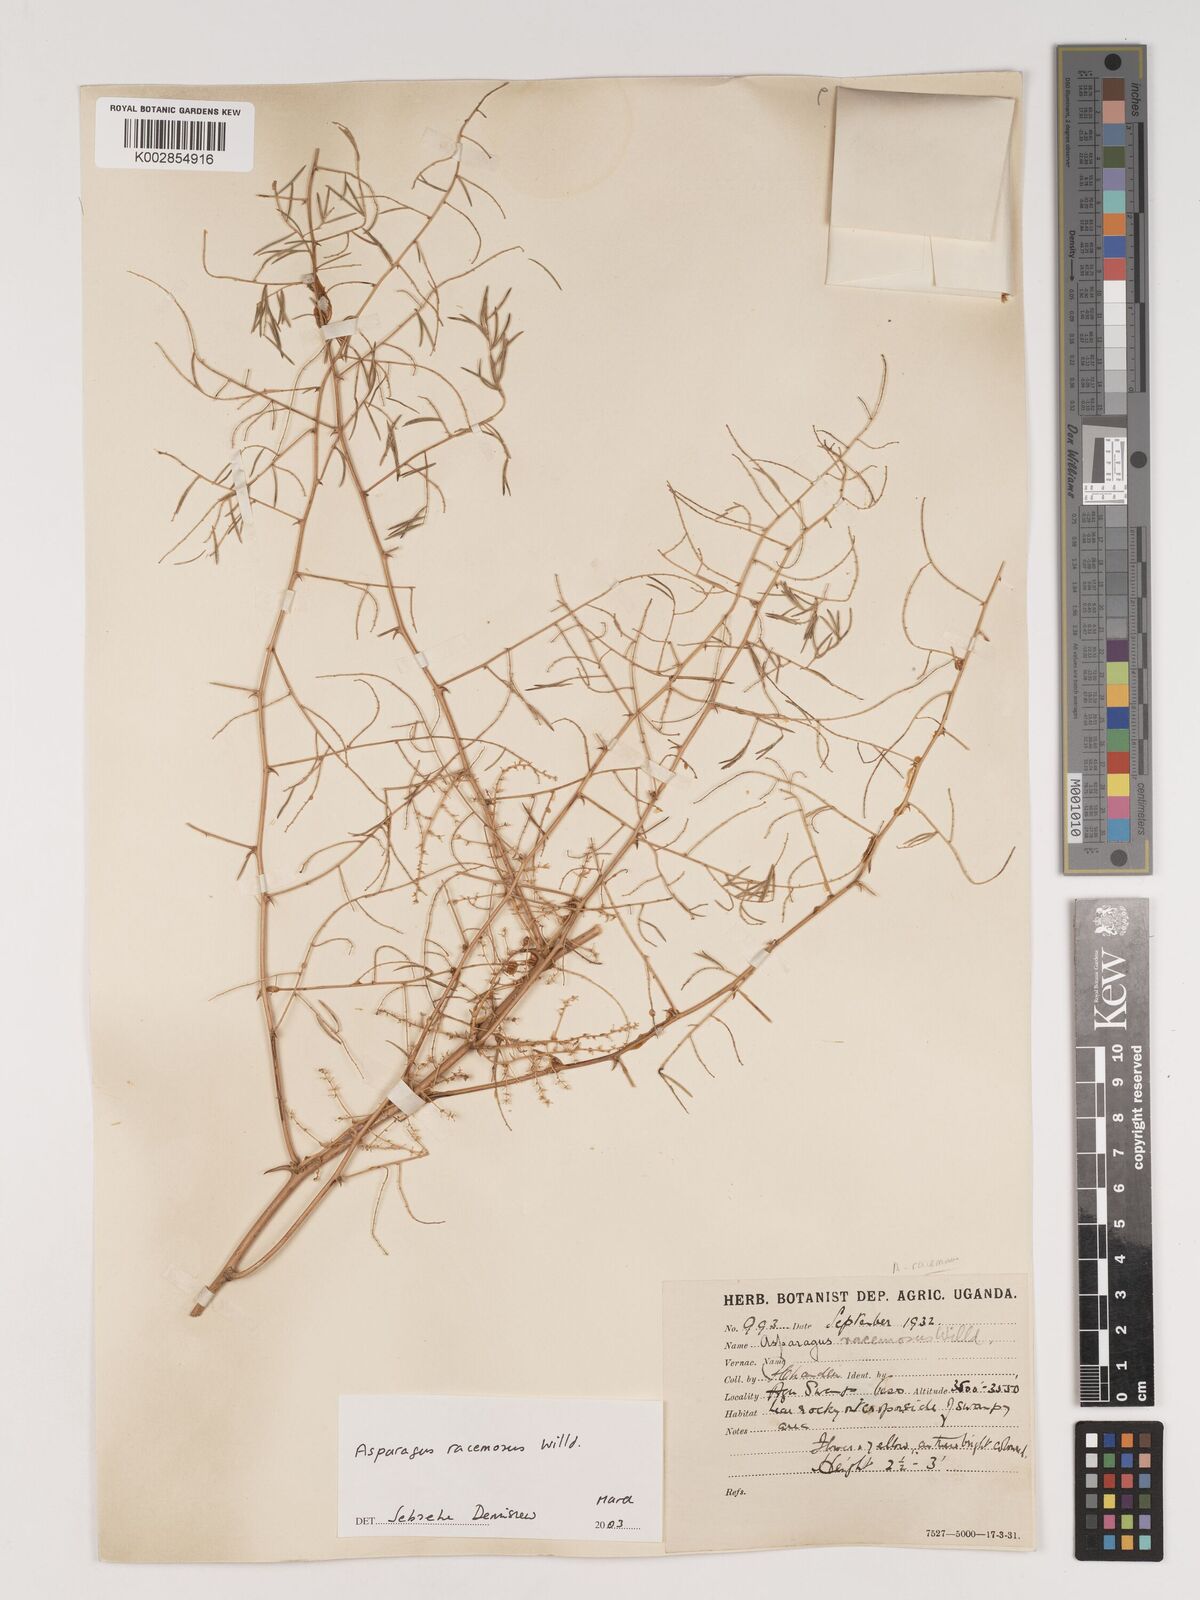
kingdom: Plantae
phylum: Tracheophyta
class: Liliopsida
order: Asparagales
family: Asparagaceae
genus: Asparagus
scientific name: Asparagus racemosus
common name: Asparagus-fern
